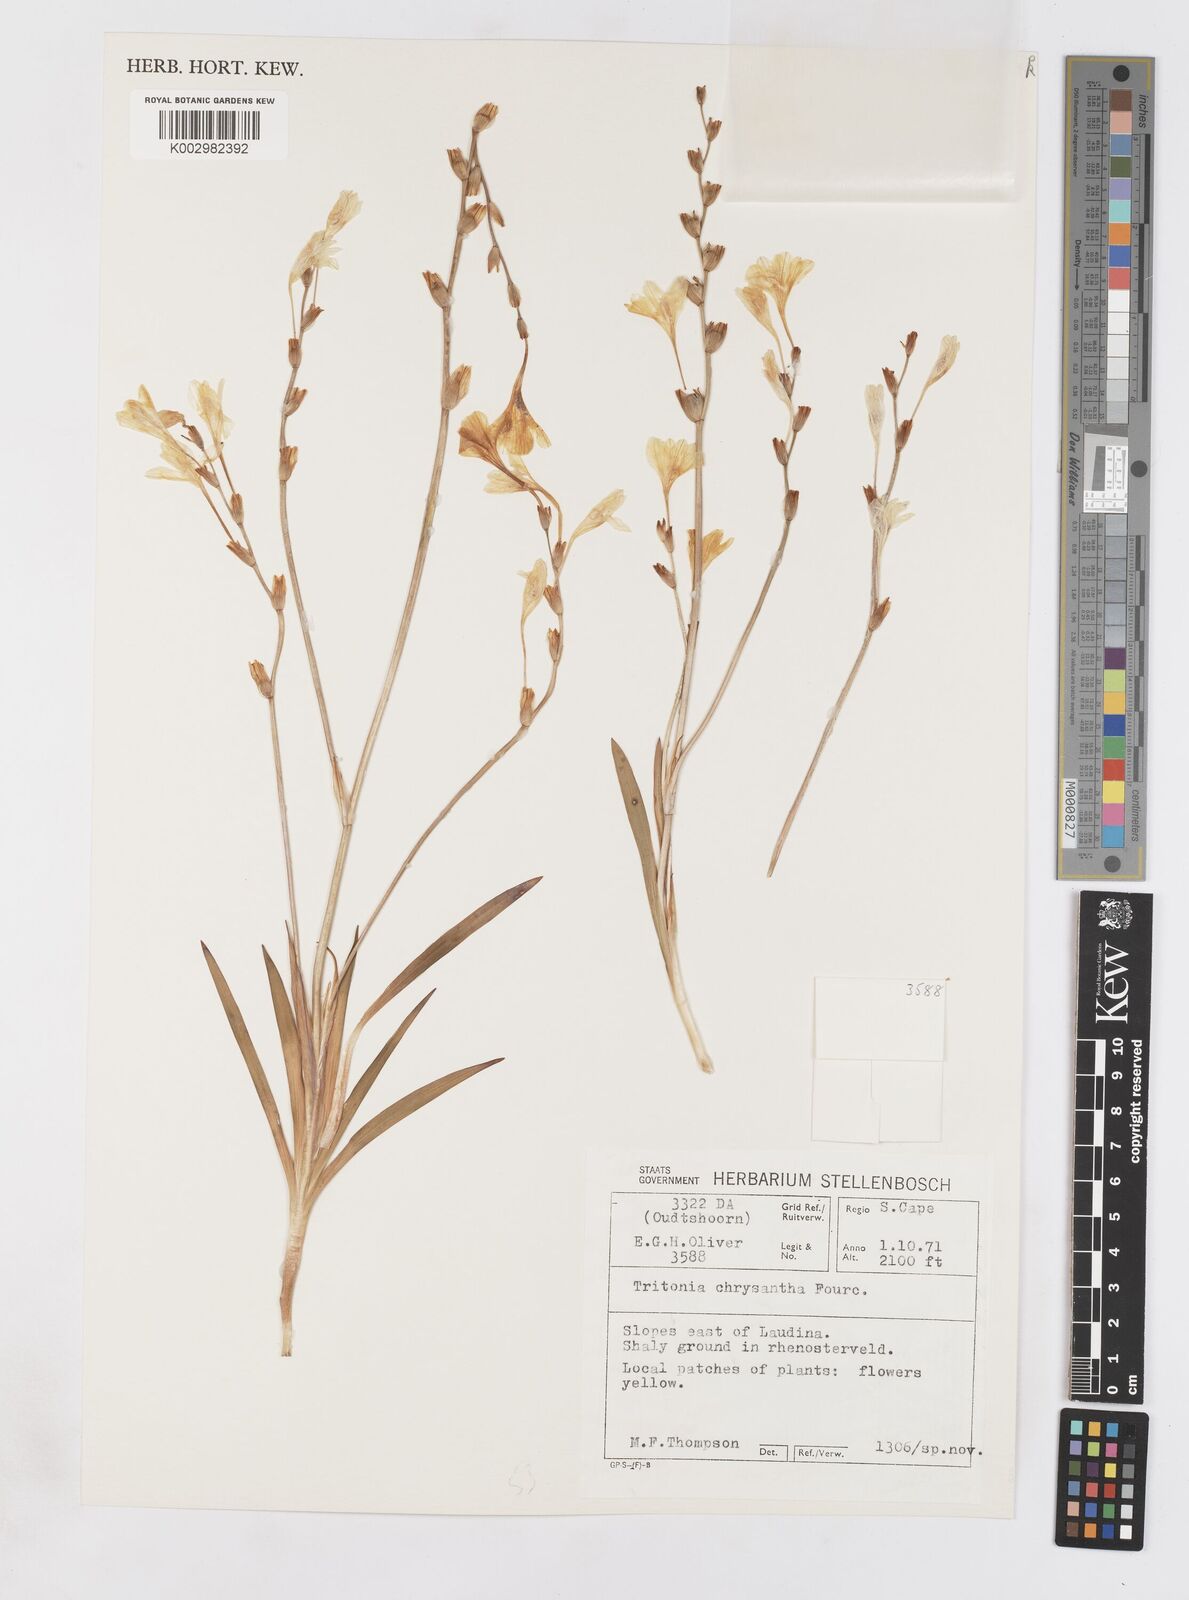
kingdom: Plantae
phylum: Tracheophyta
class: Liliopsida
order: Asparagales
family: Iridaceae
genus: Tritonia
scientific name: Tritonia chrysantha
